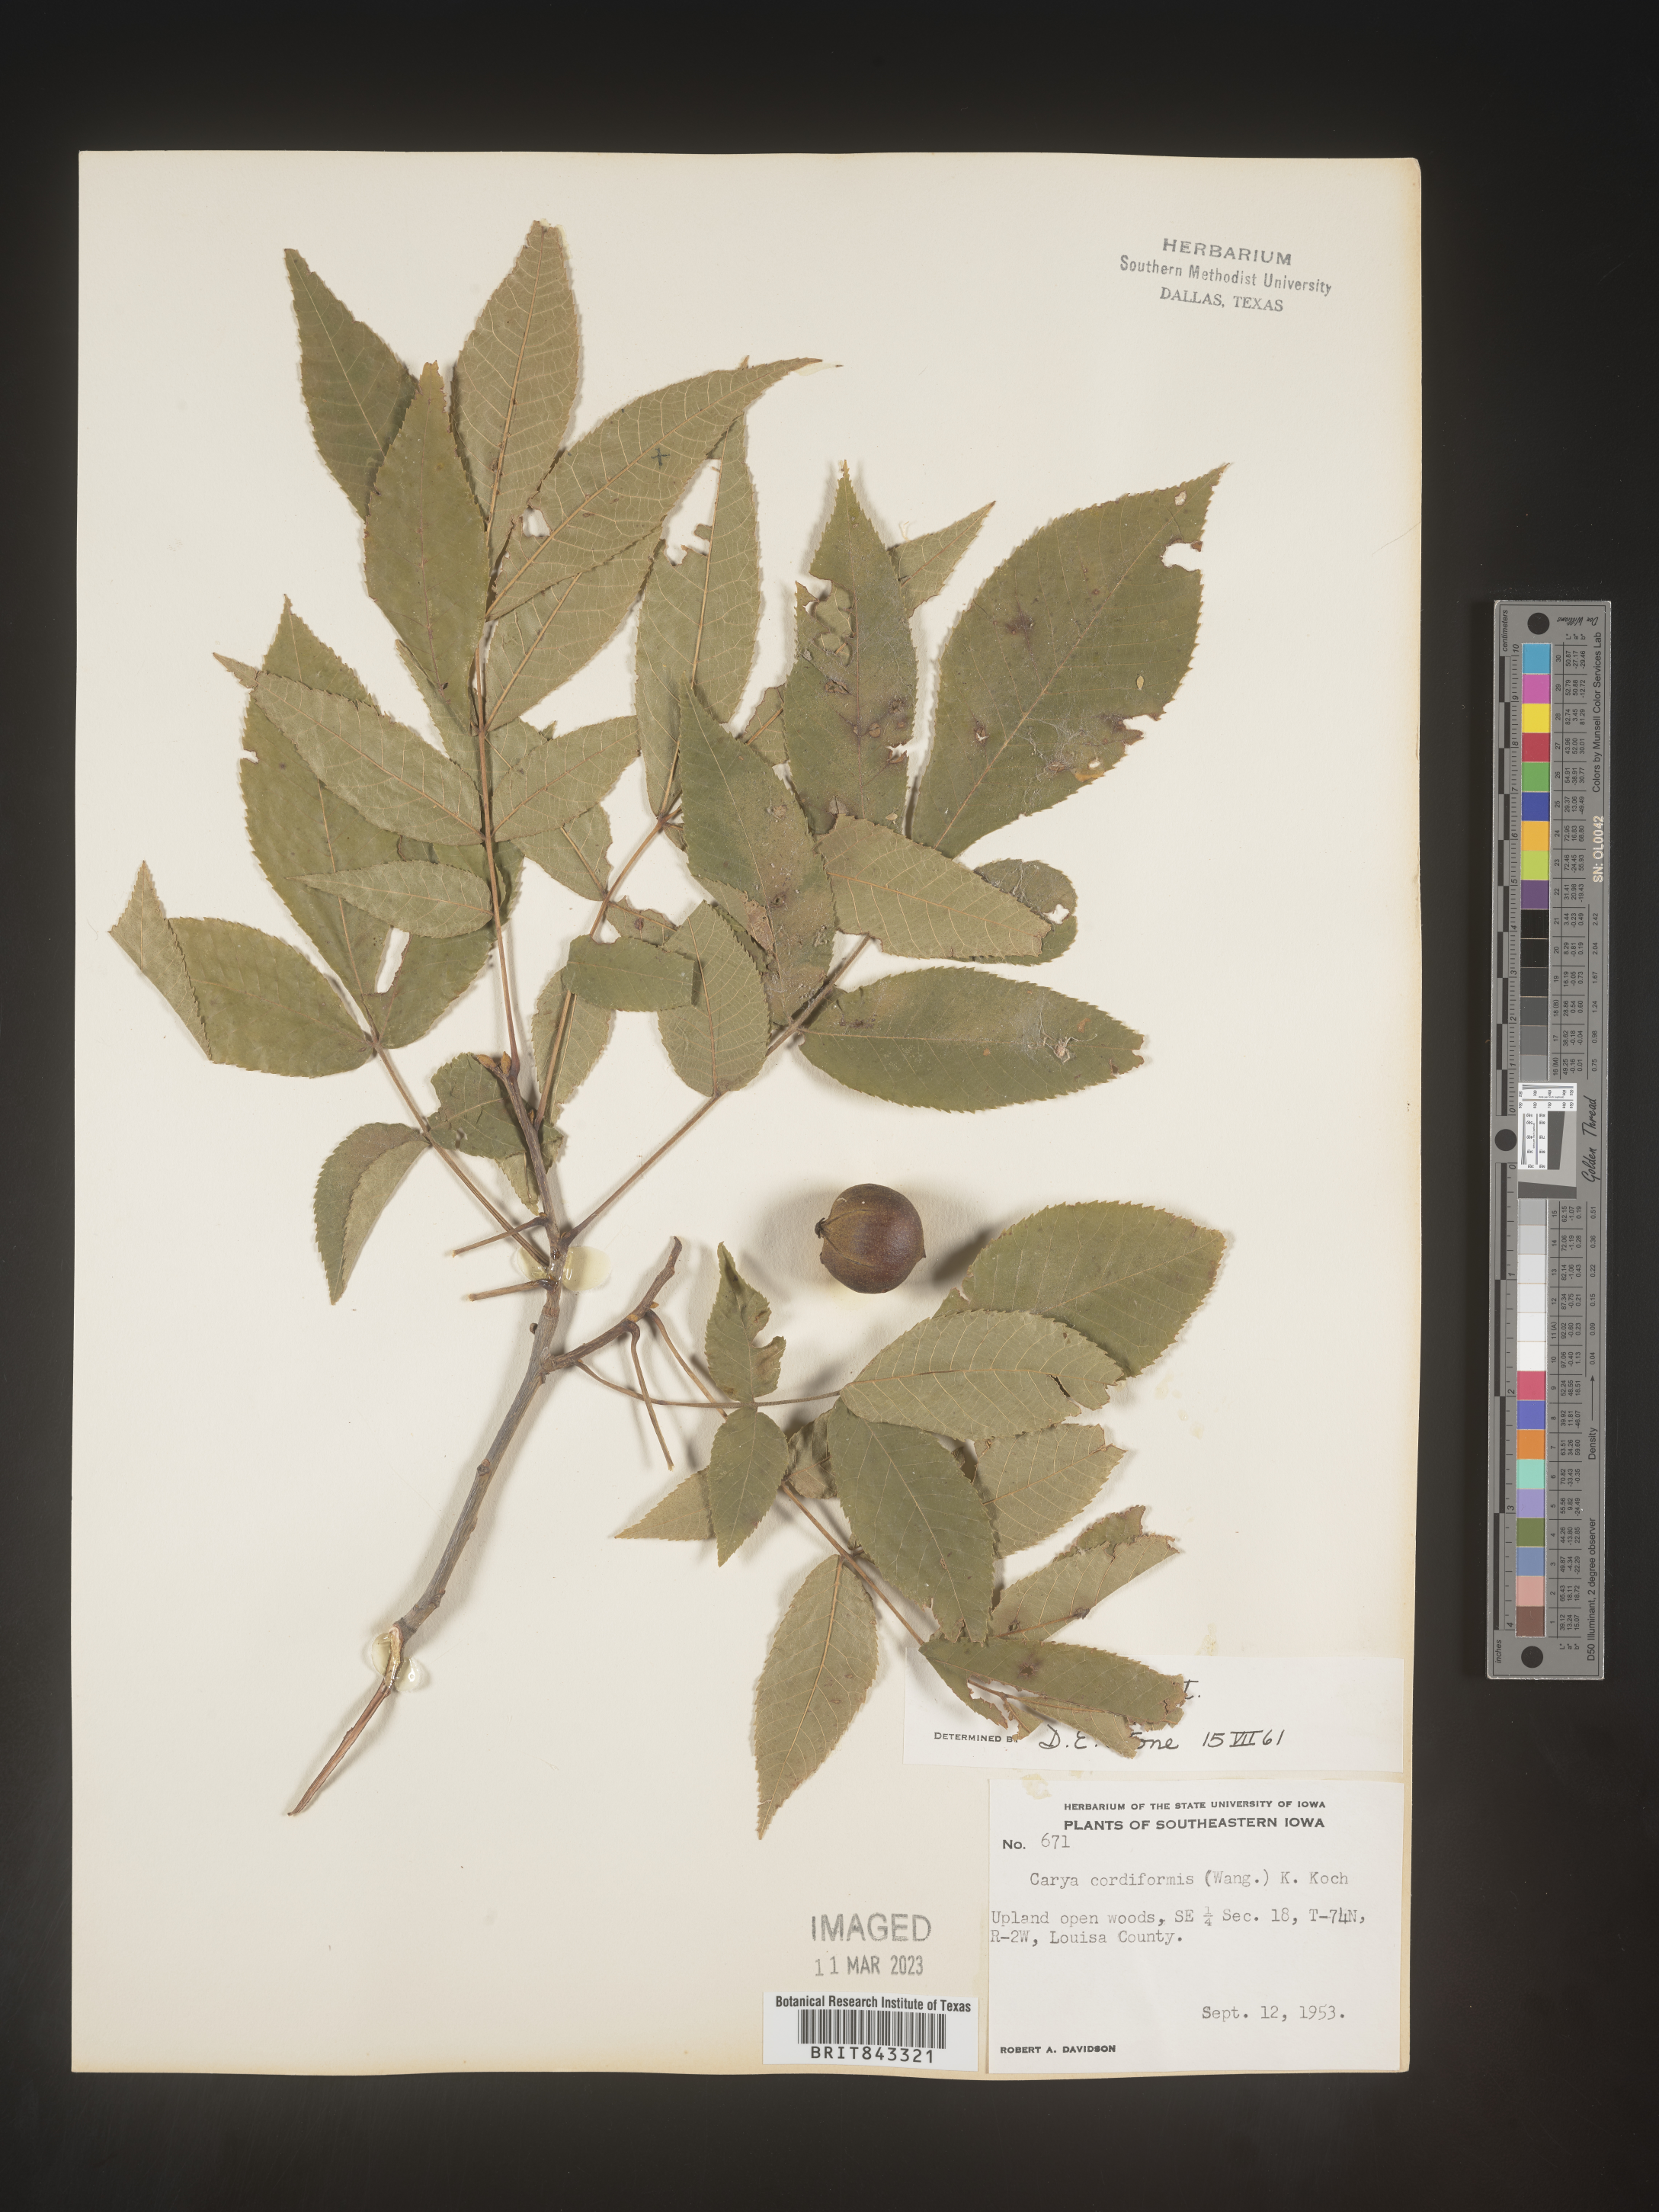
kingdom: Plantae
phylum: Tracheophyta
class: Magnoliopsida
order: Fagales
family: Juglandaceae
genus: Carya
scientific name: Carya cordiformis
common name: Bitternut hickory
